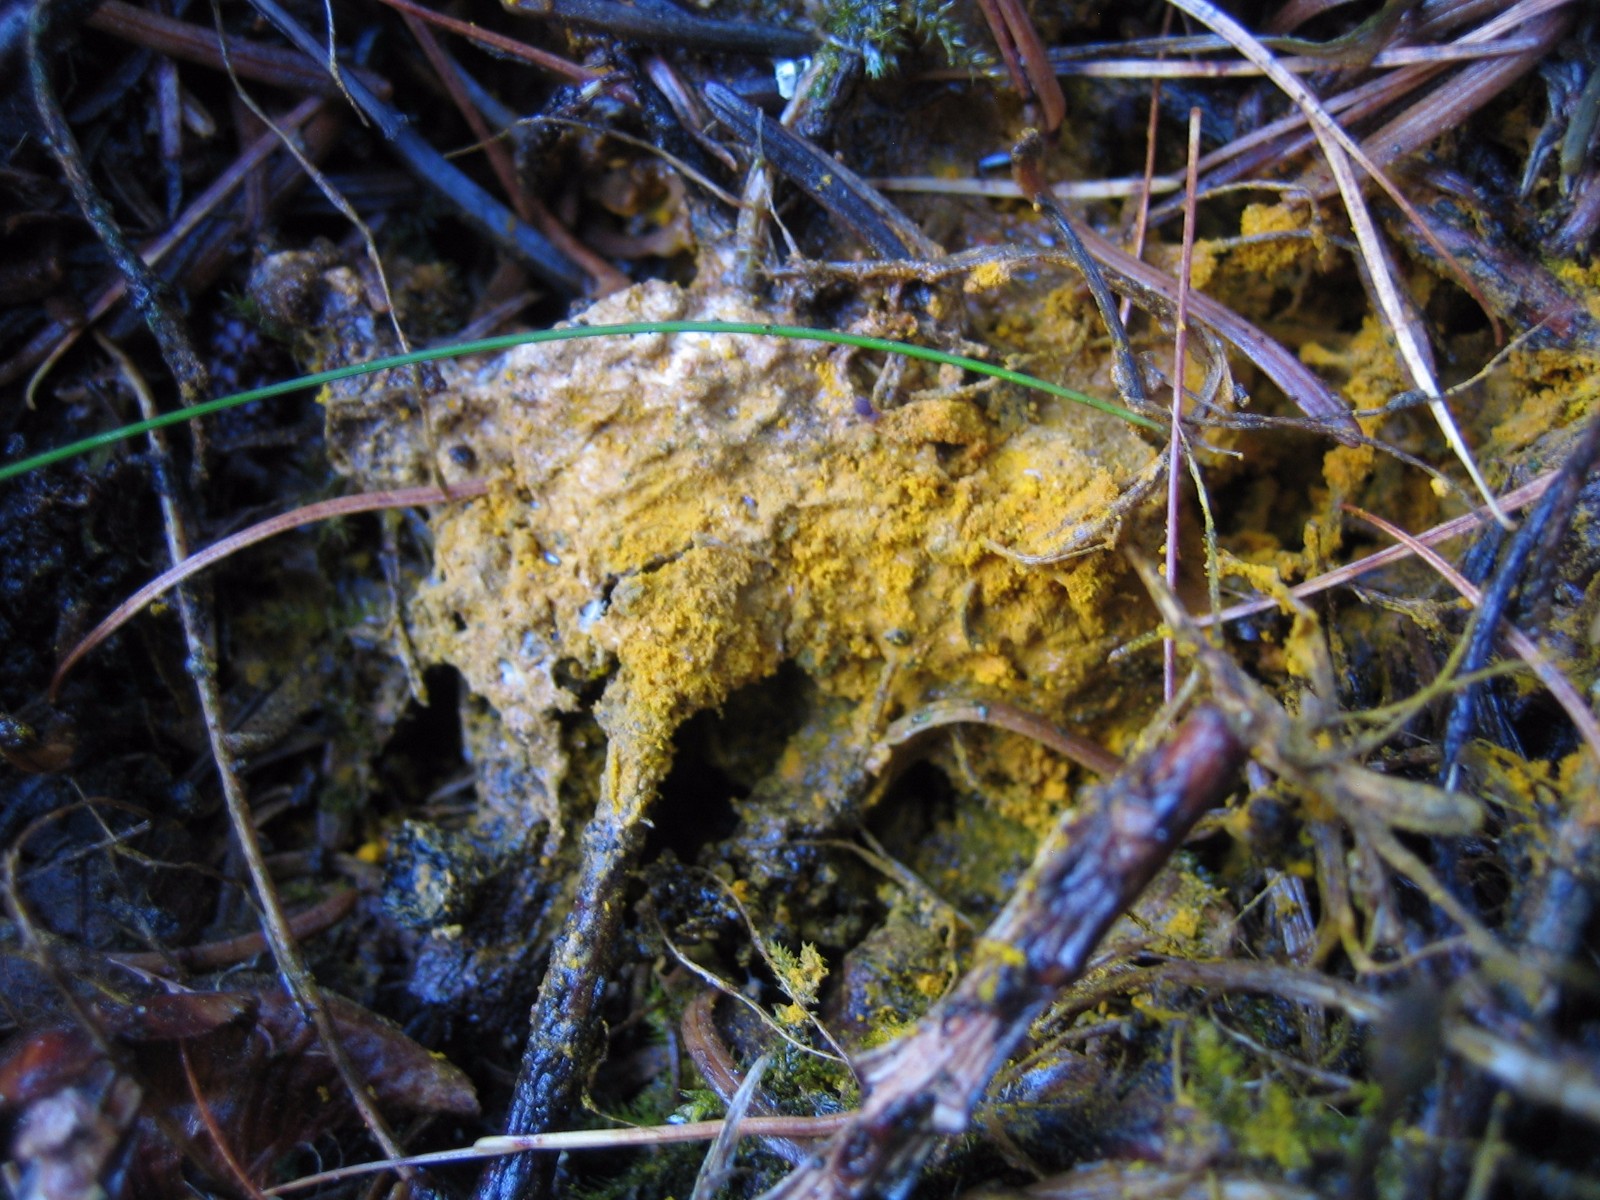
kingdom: Fungi
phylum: Ascomycota
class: Sordariomycetes
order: Hypocreales
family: Hypocreaceae
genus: Hypomyces
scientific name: Hypomyces
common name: snylteskorpe
